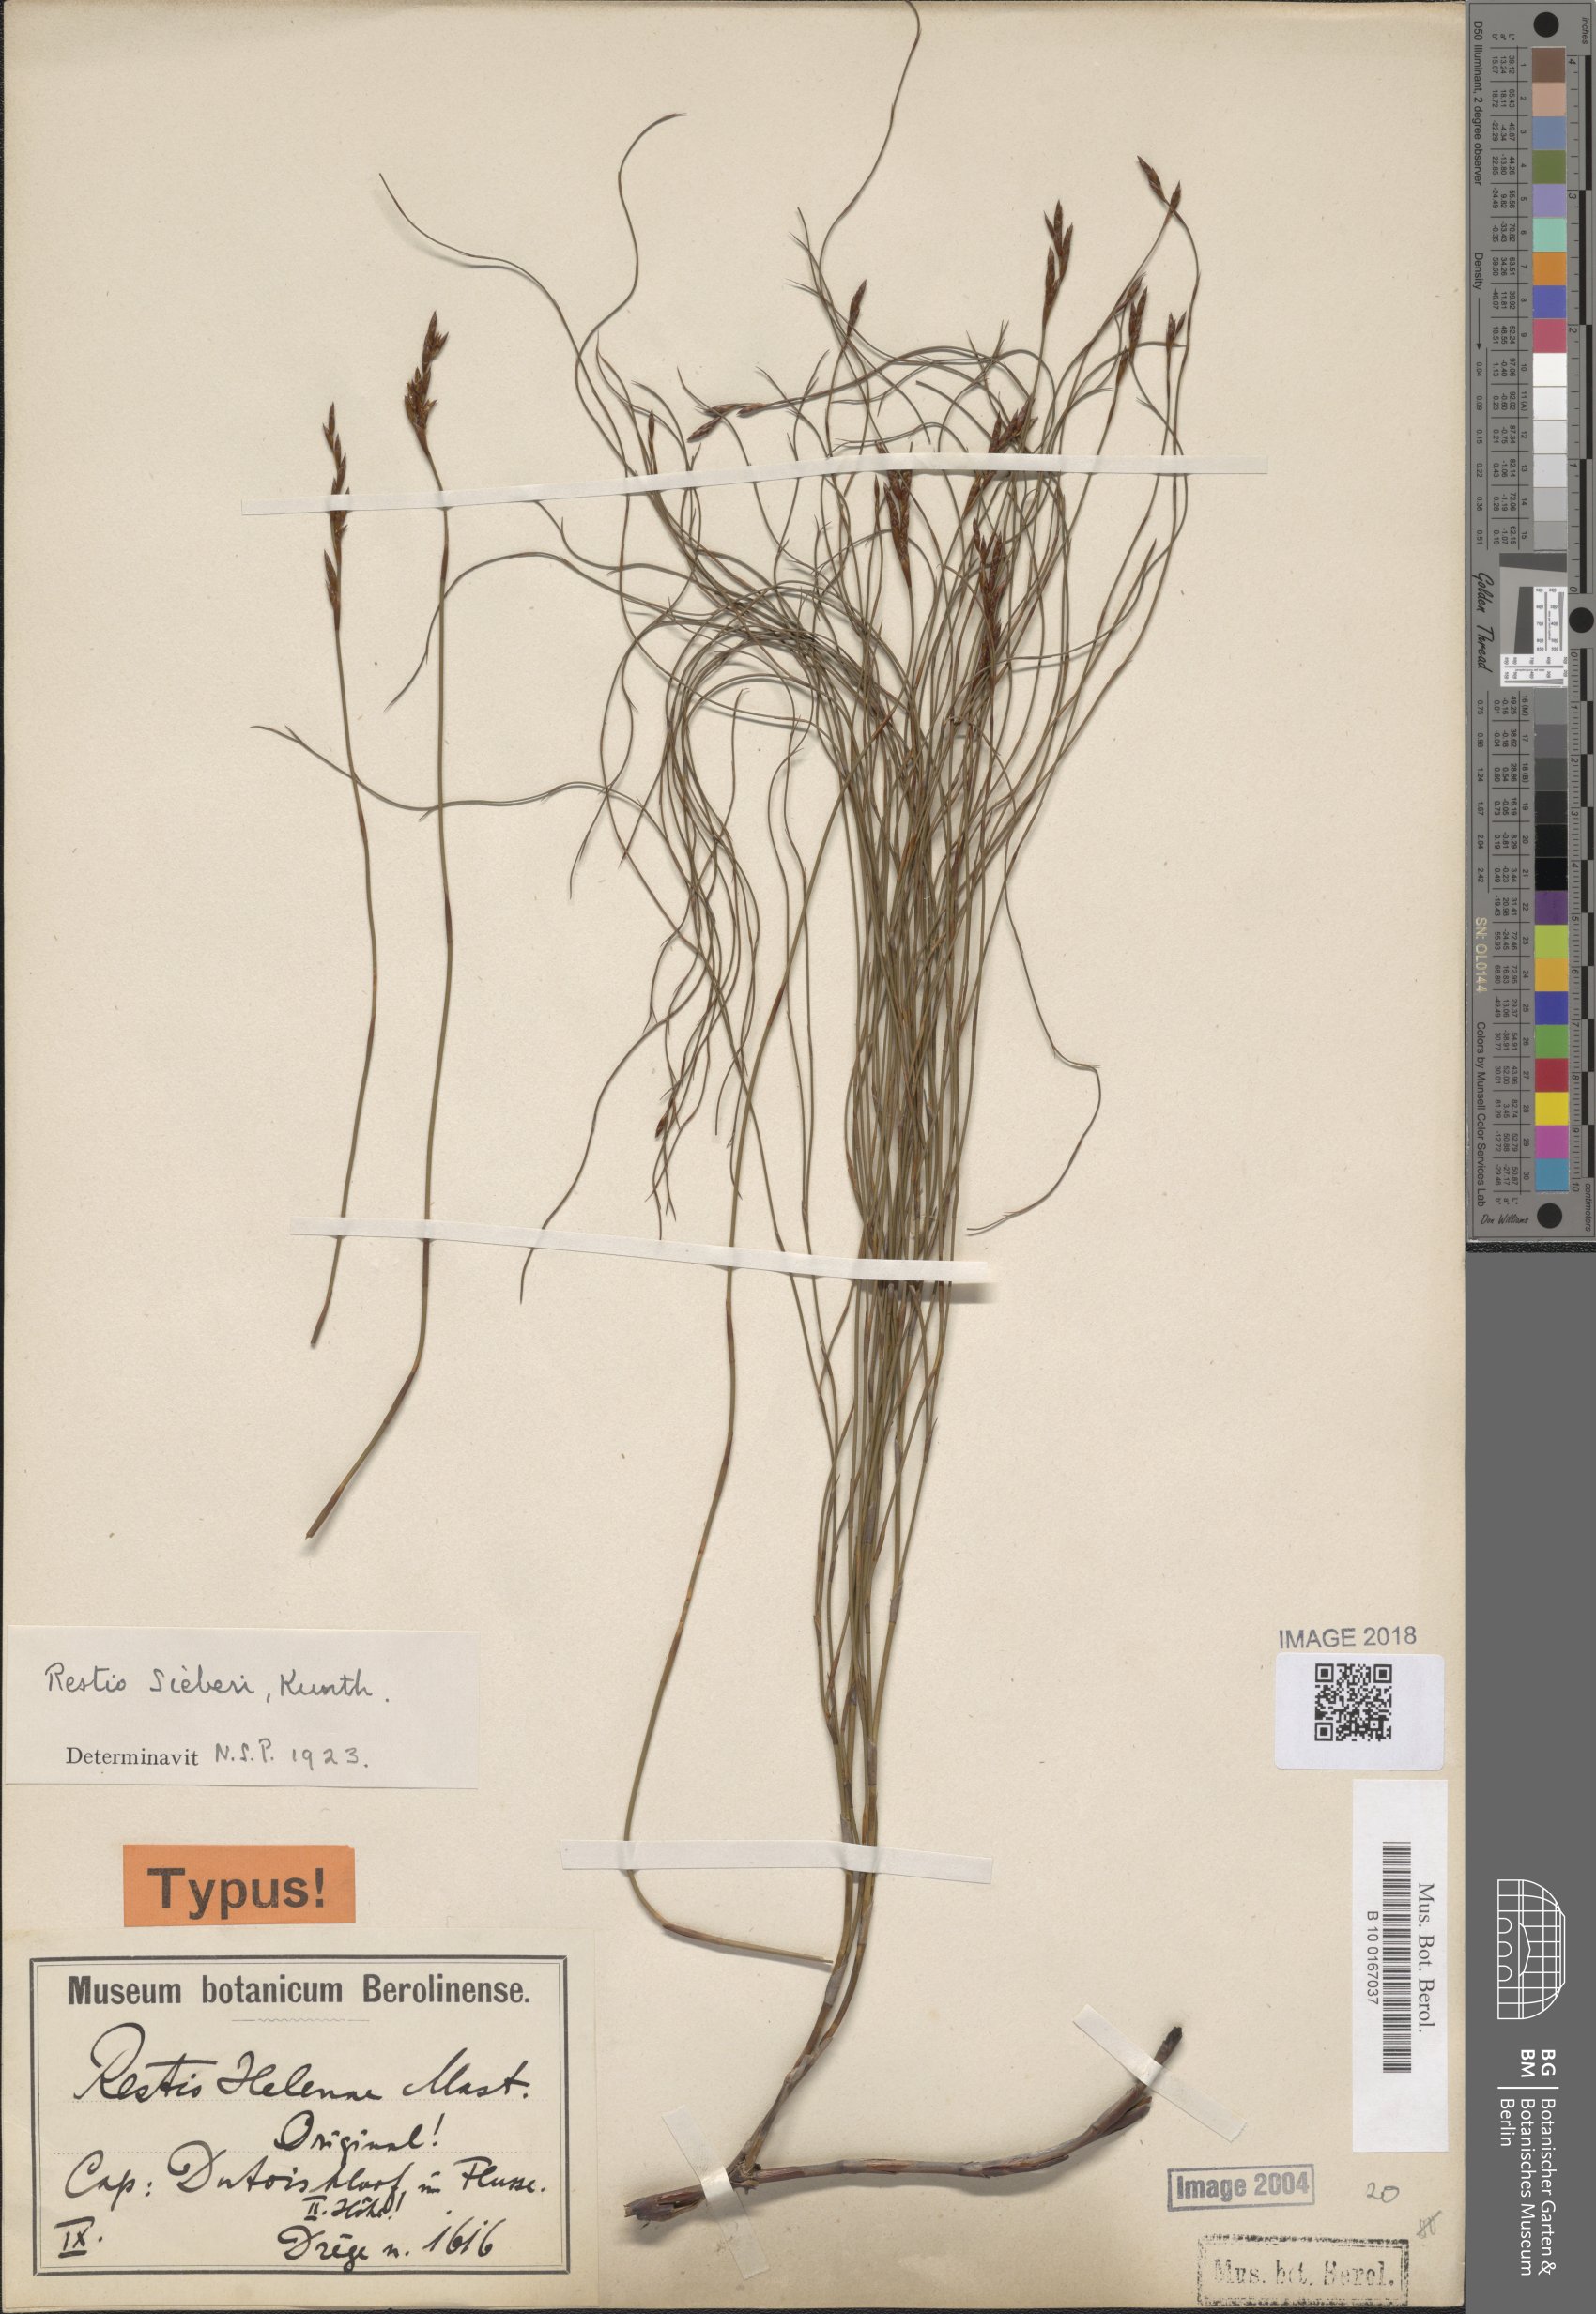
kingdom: Plantae
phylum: Tracheophyta
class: Liliopsida
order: Poales
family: Restionaceae
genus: Restio
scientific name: Restio sieberi
